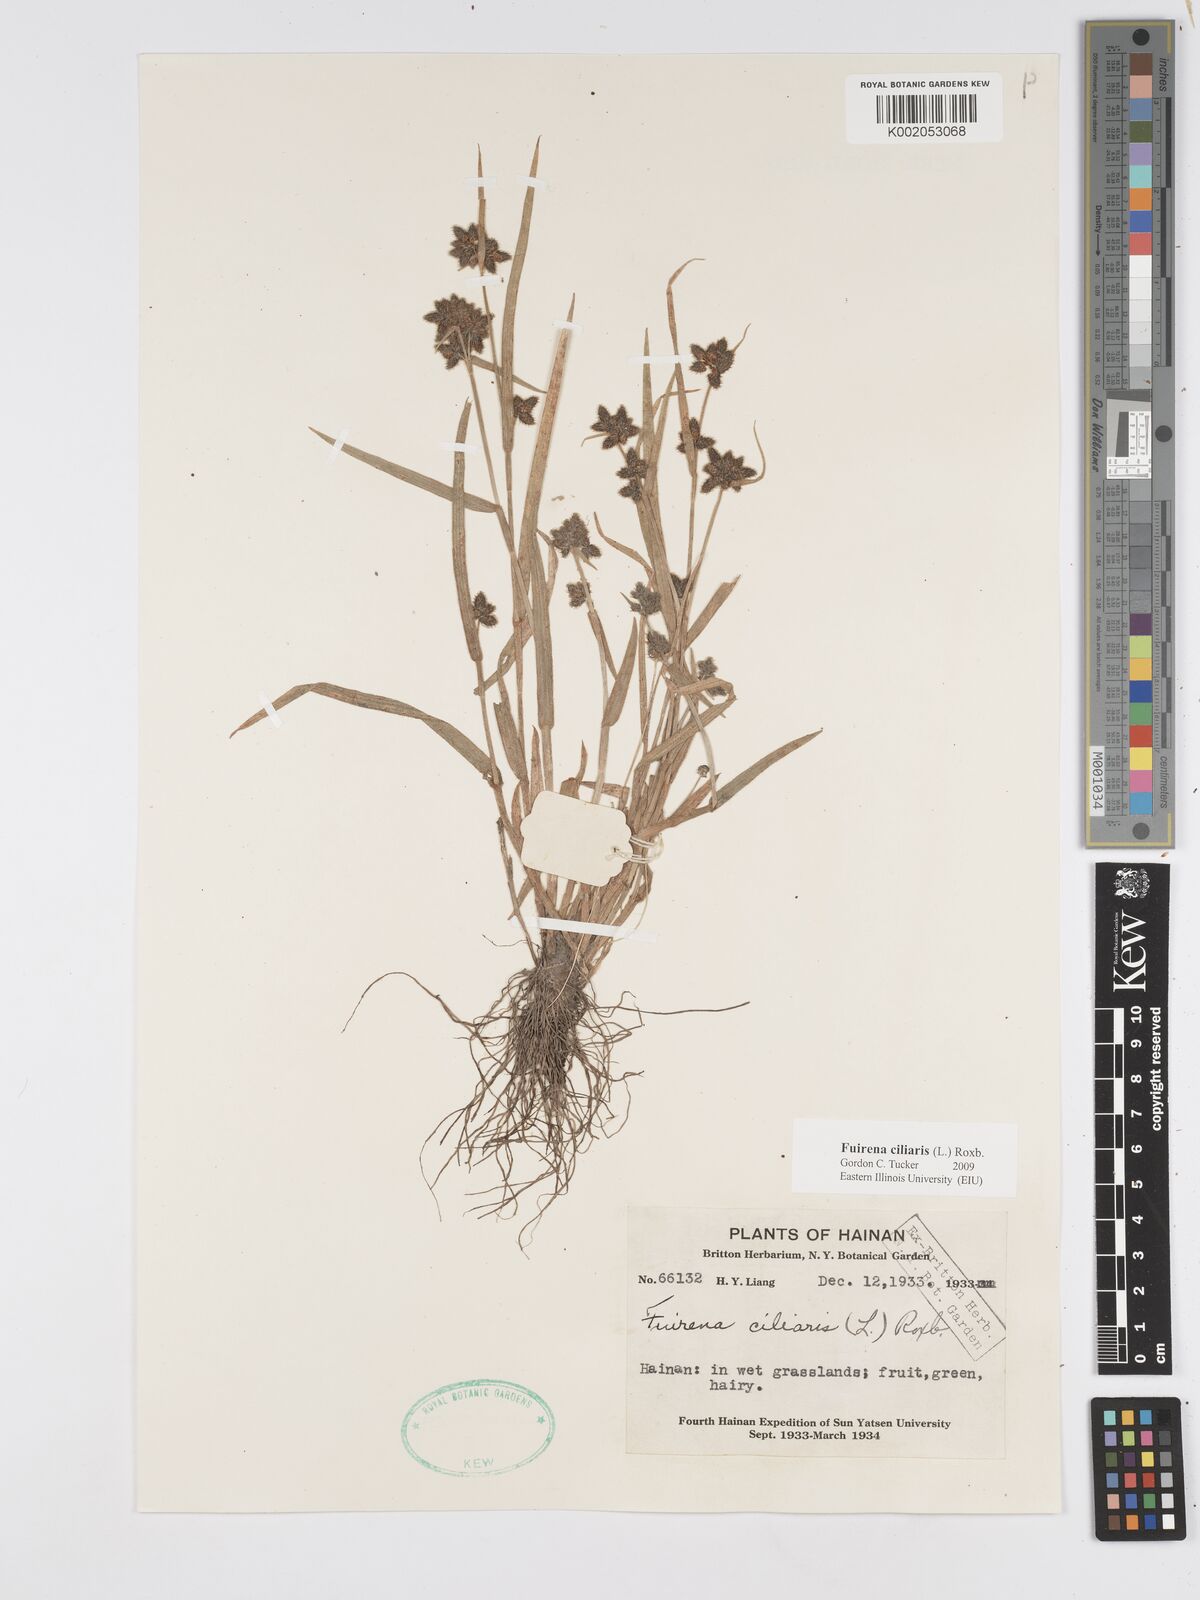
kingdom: Plantae
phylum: Tracheophyta
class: Liliopsida
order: Poales
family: Cyperaceae
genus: Fuirena
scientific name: Fuirena ciliaris
